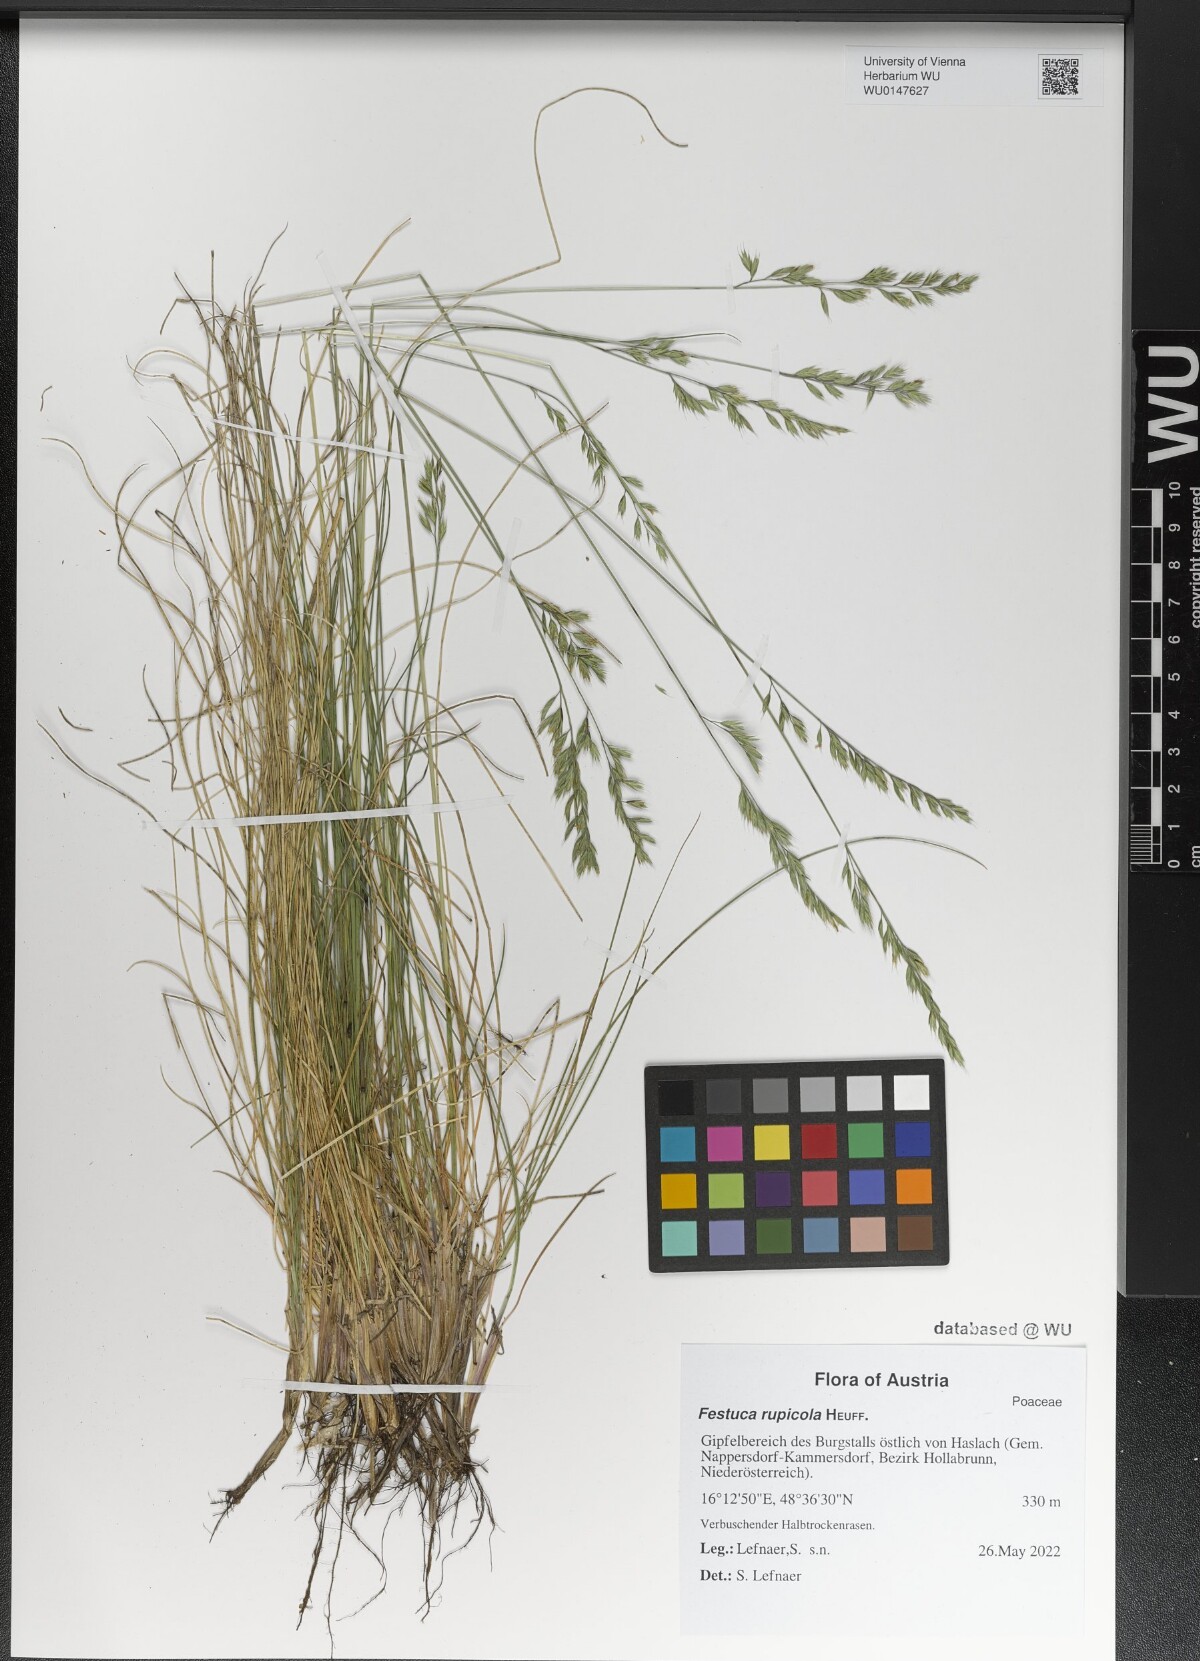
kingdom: Plantae
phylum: Tracheophyta
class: Liliopsida
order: Poales
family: Poaceae
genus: Festuca
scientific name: Festuca rupicola
